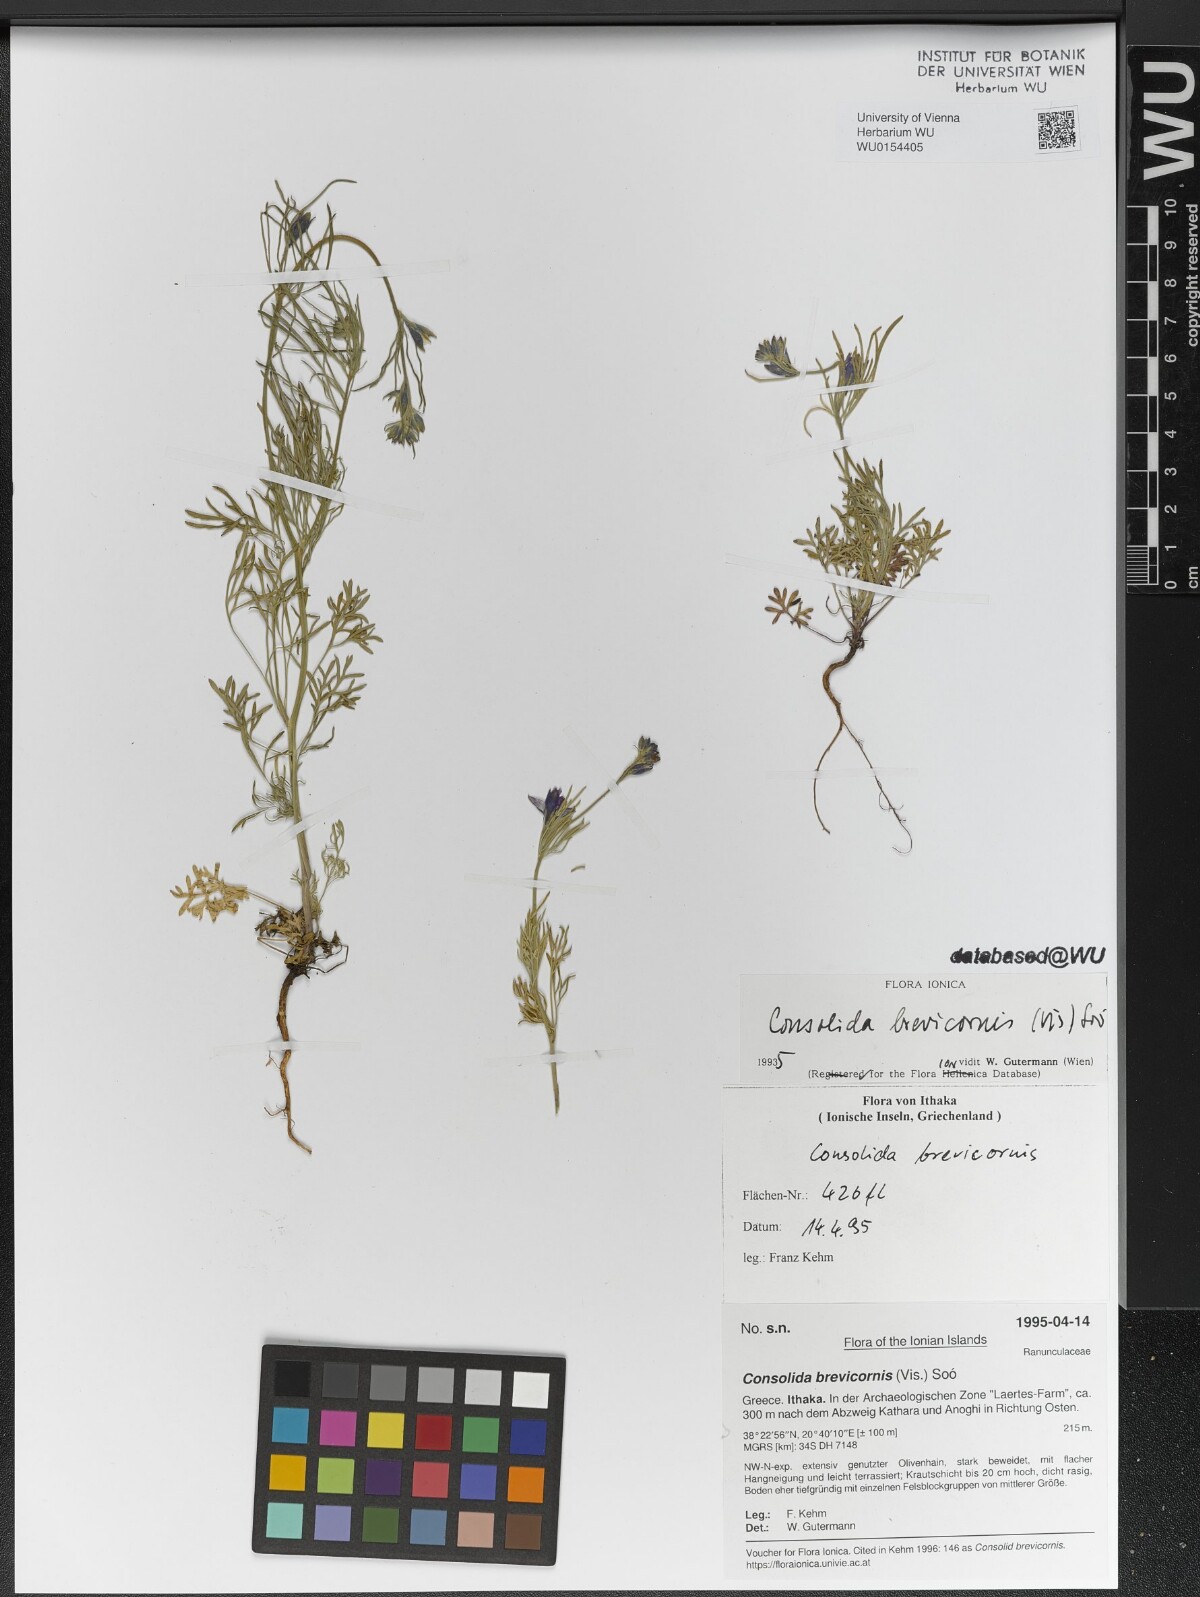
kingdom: Plantae
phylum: Tracheophyta
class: Magnoliopsida
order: Ranunculales
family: Ranunculaceae
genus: Delphinium
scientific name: Delphinium brevicorne
